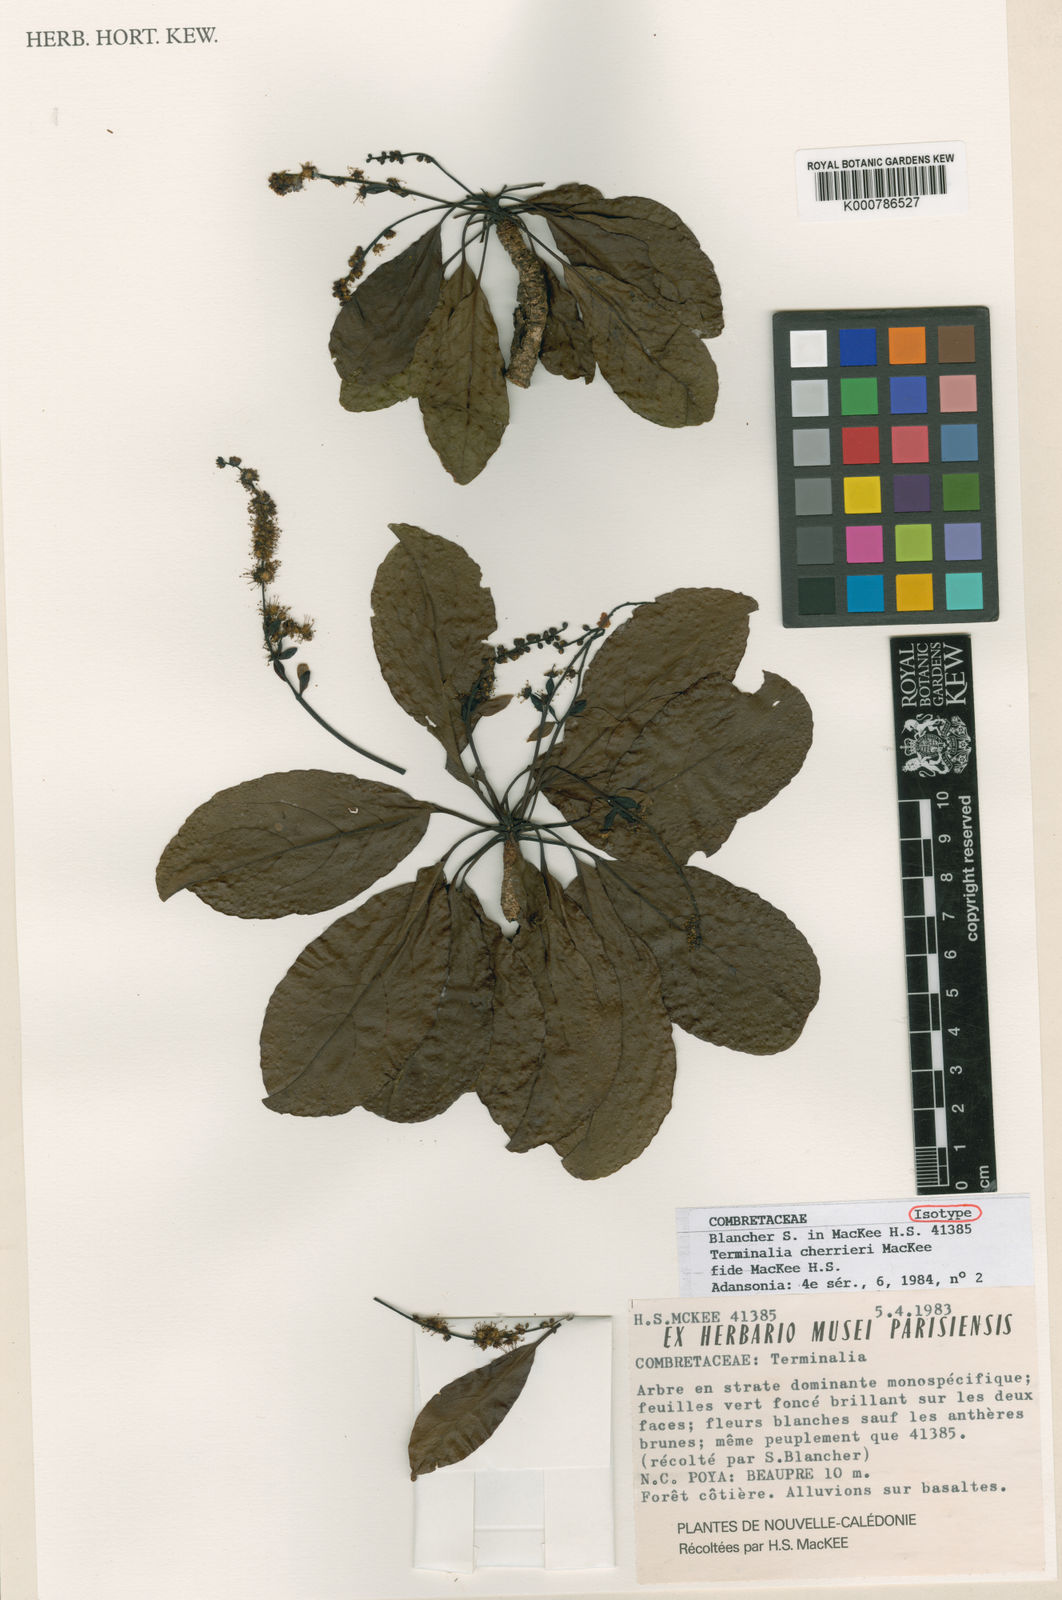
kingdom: Plantae
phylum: Tracheophyta
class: Magnoliopsida
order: Myrtales
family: Combretaceae
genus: Terminalia
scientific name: Terminalia cherrieri
